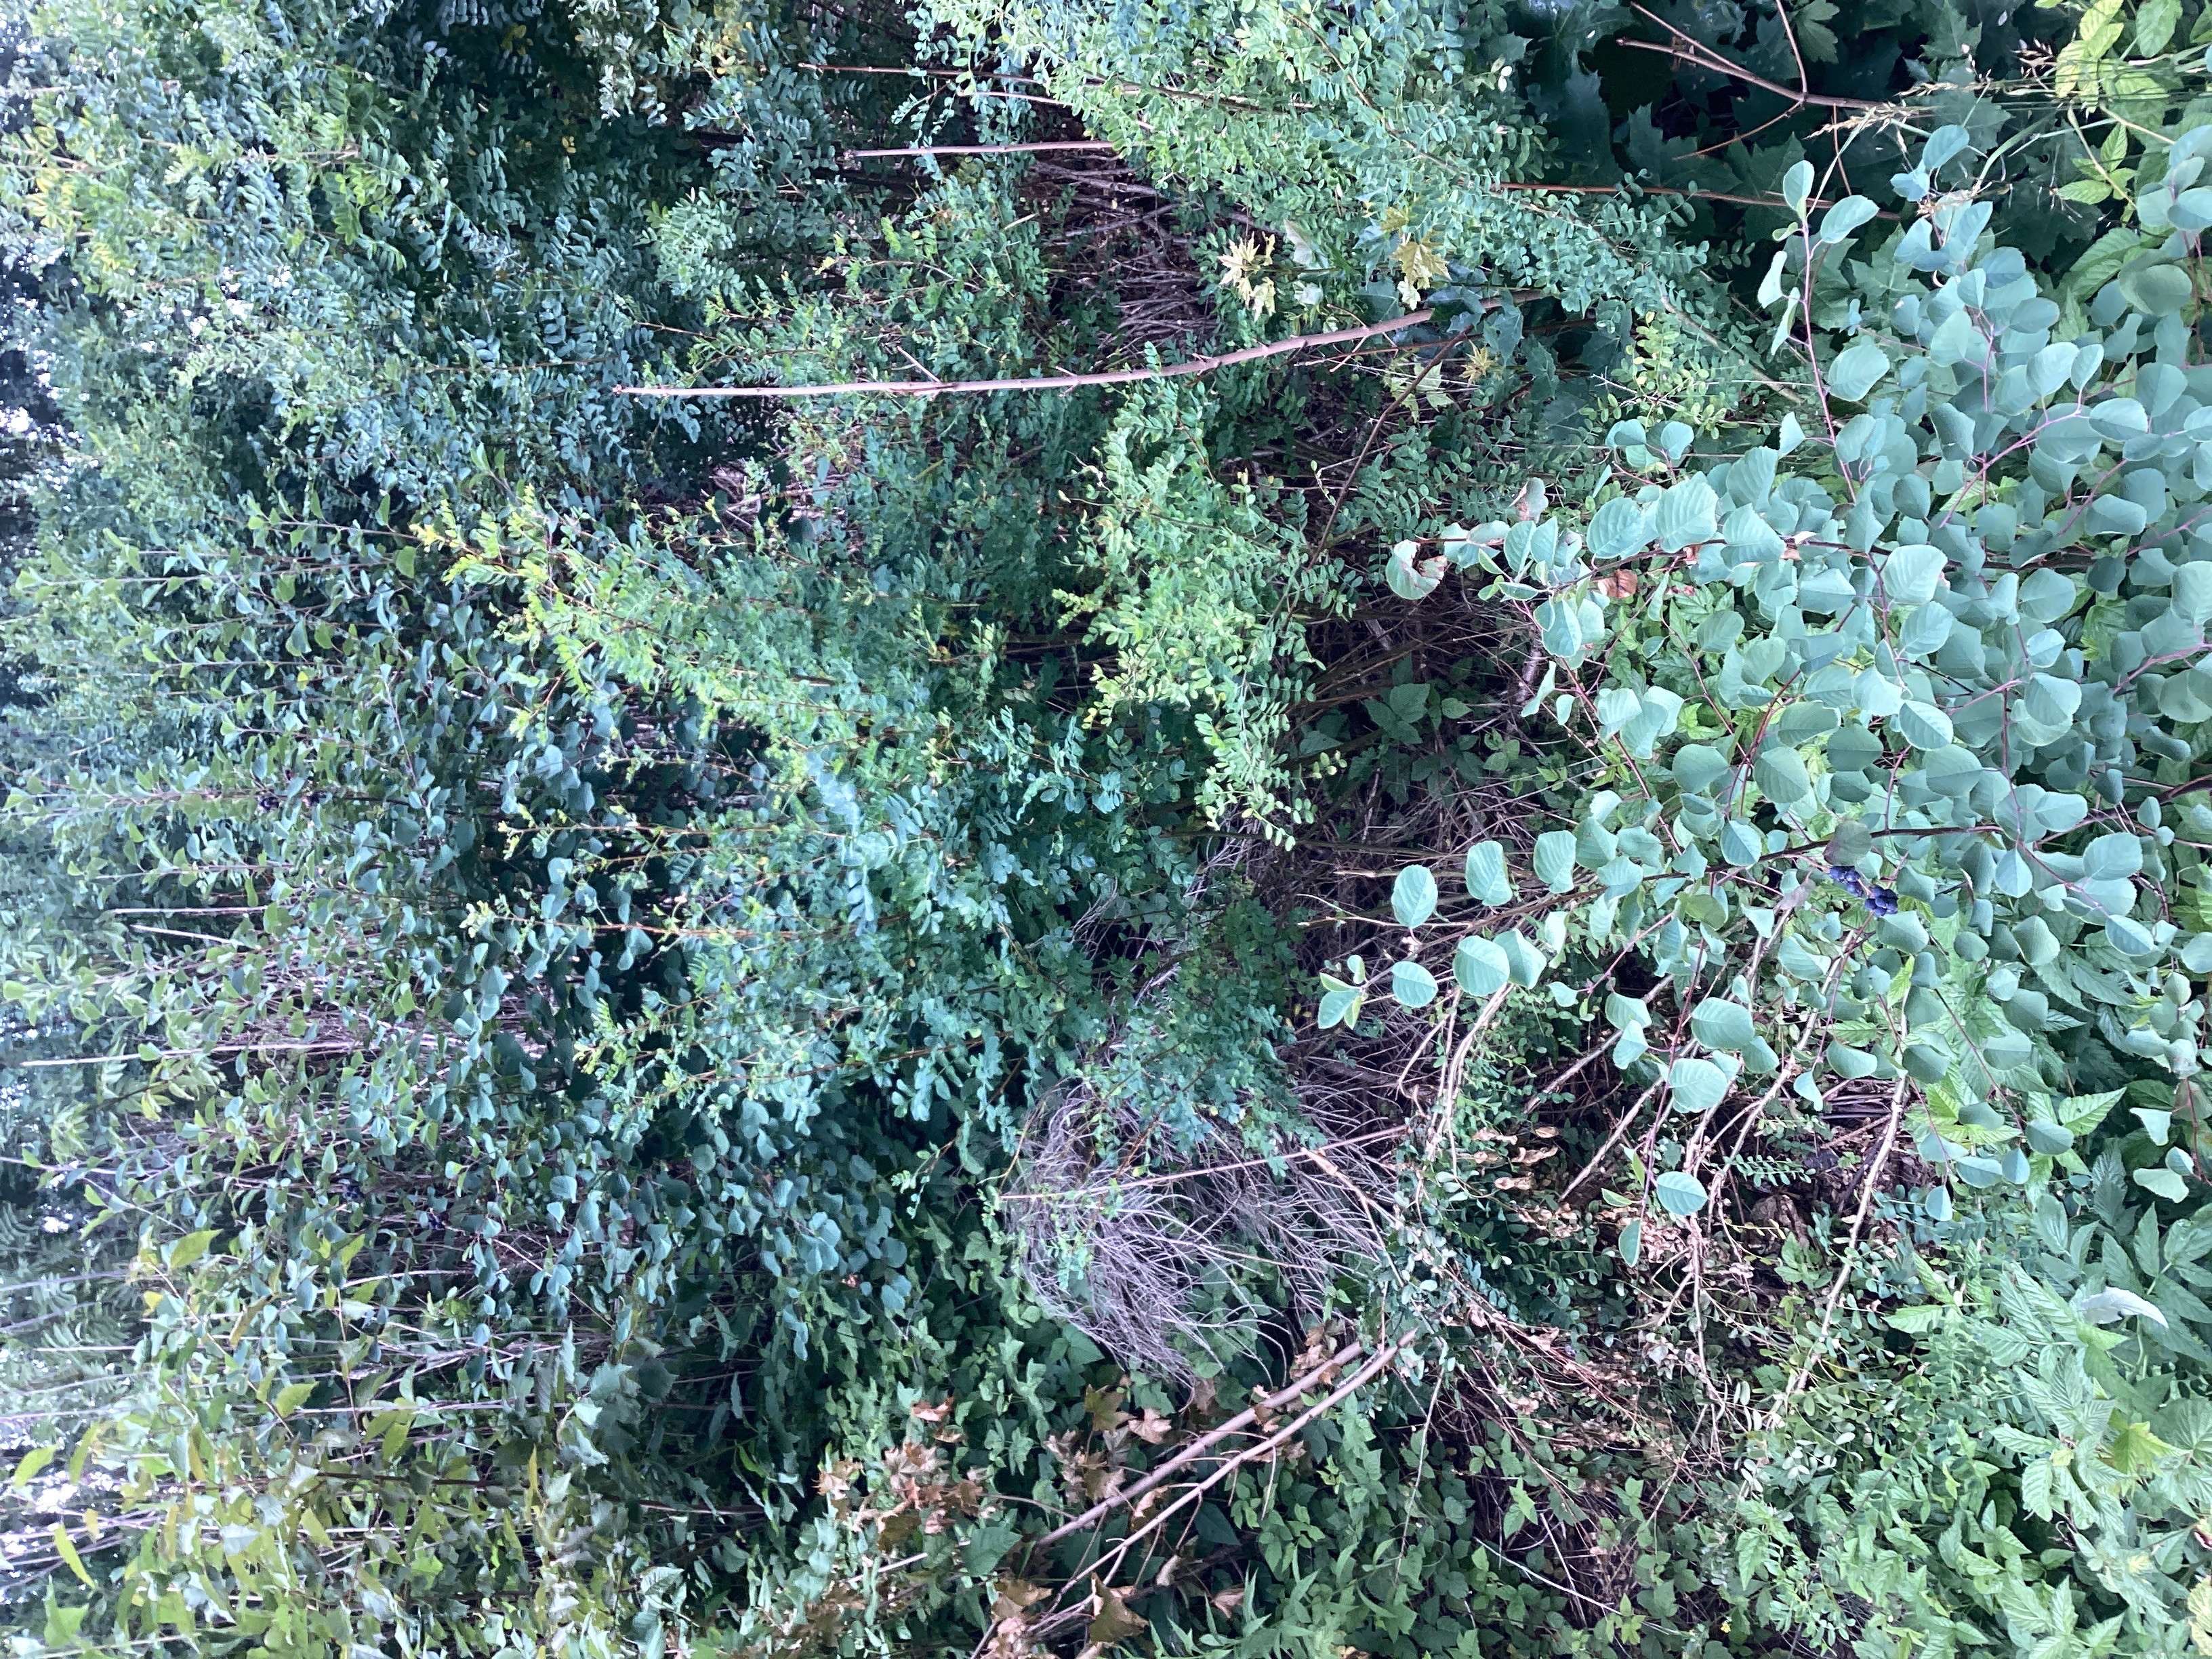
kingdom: Plantae
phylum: Tracheophyta
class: Magnoliopsida
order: Rosales
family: Rosaceae
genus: Amelanchier
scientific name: Amelanchier alnifolia
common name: taggblåhegg
